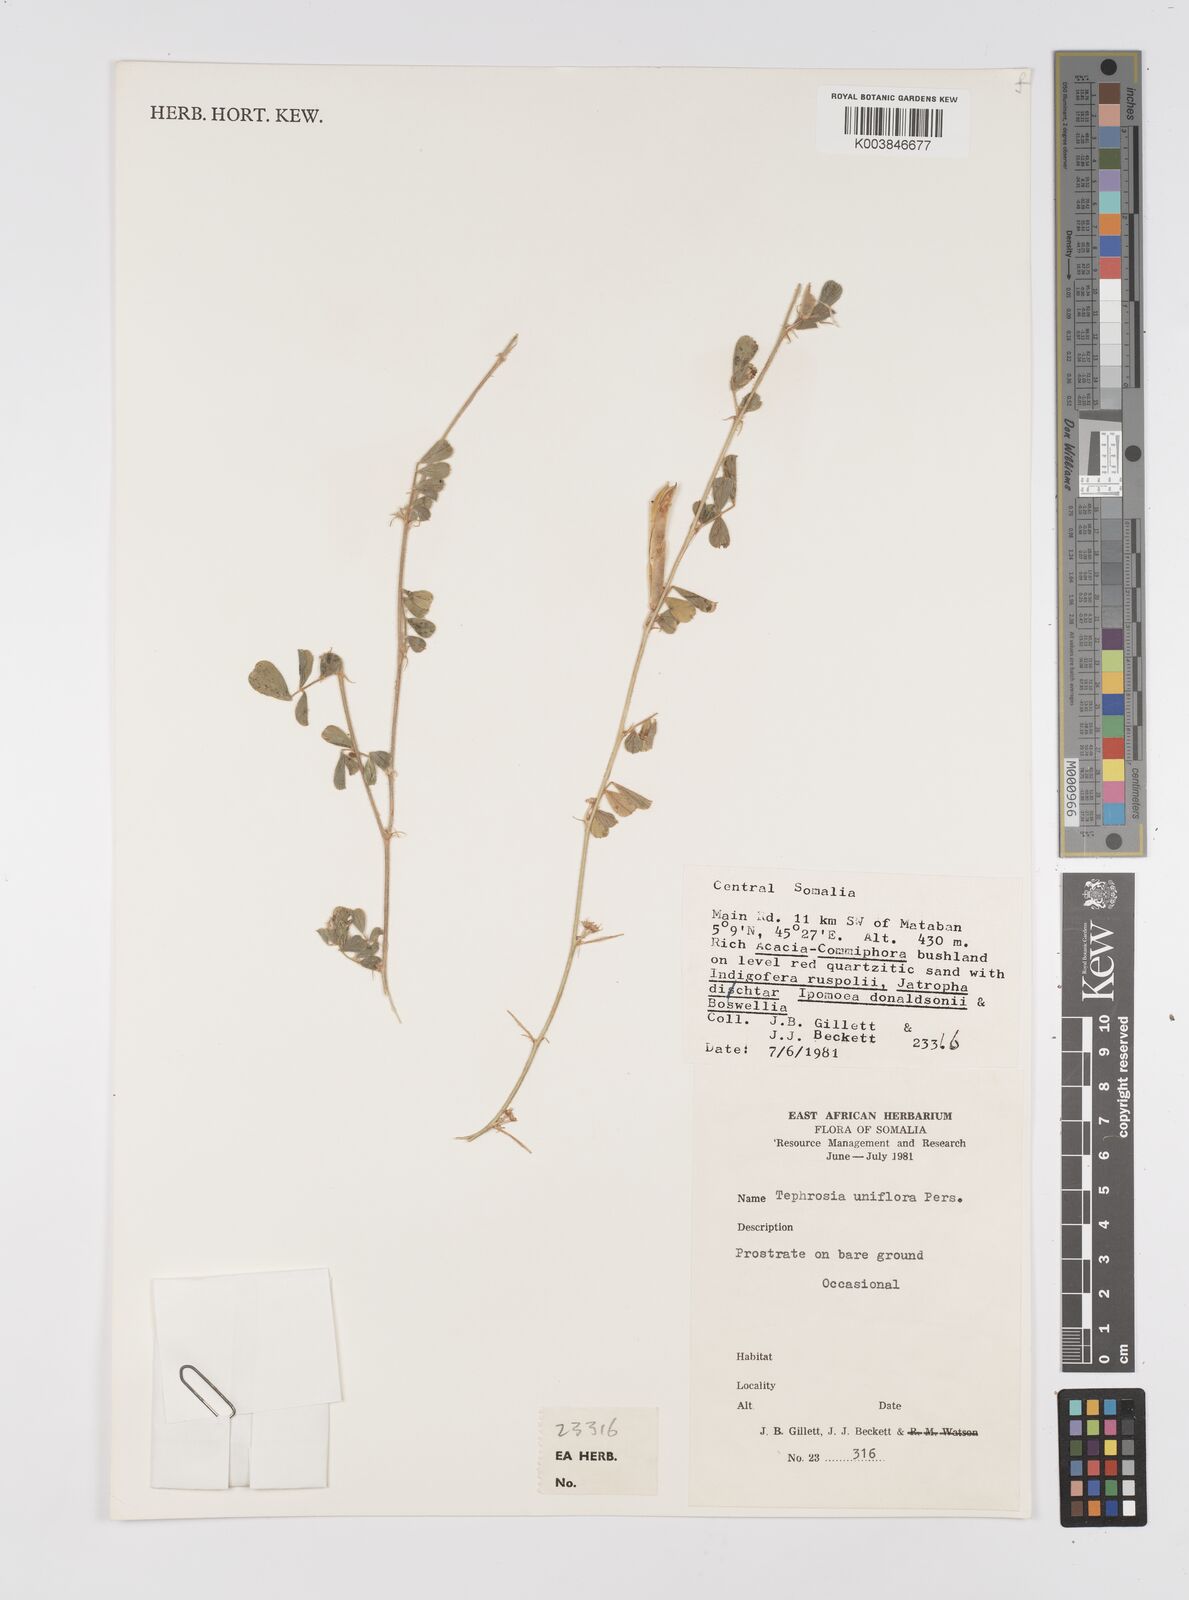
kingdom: Plantae
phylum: Tracheophyta
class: Magnoliopsida
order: Fabales
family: Fabaceae
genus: Tephrosia
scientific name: Tephrosia uniflora
